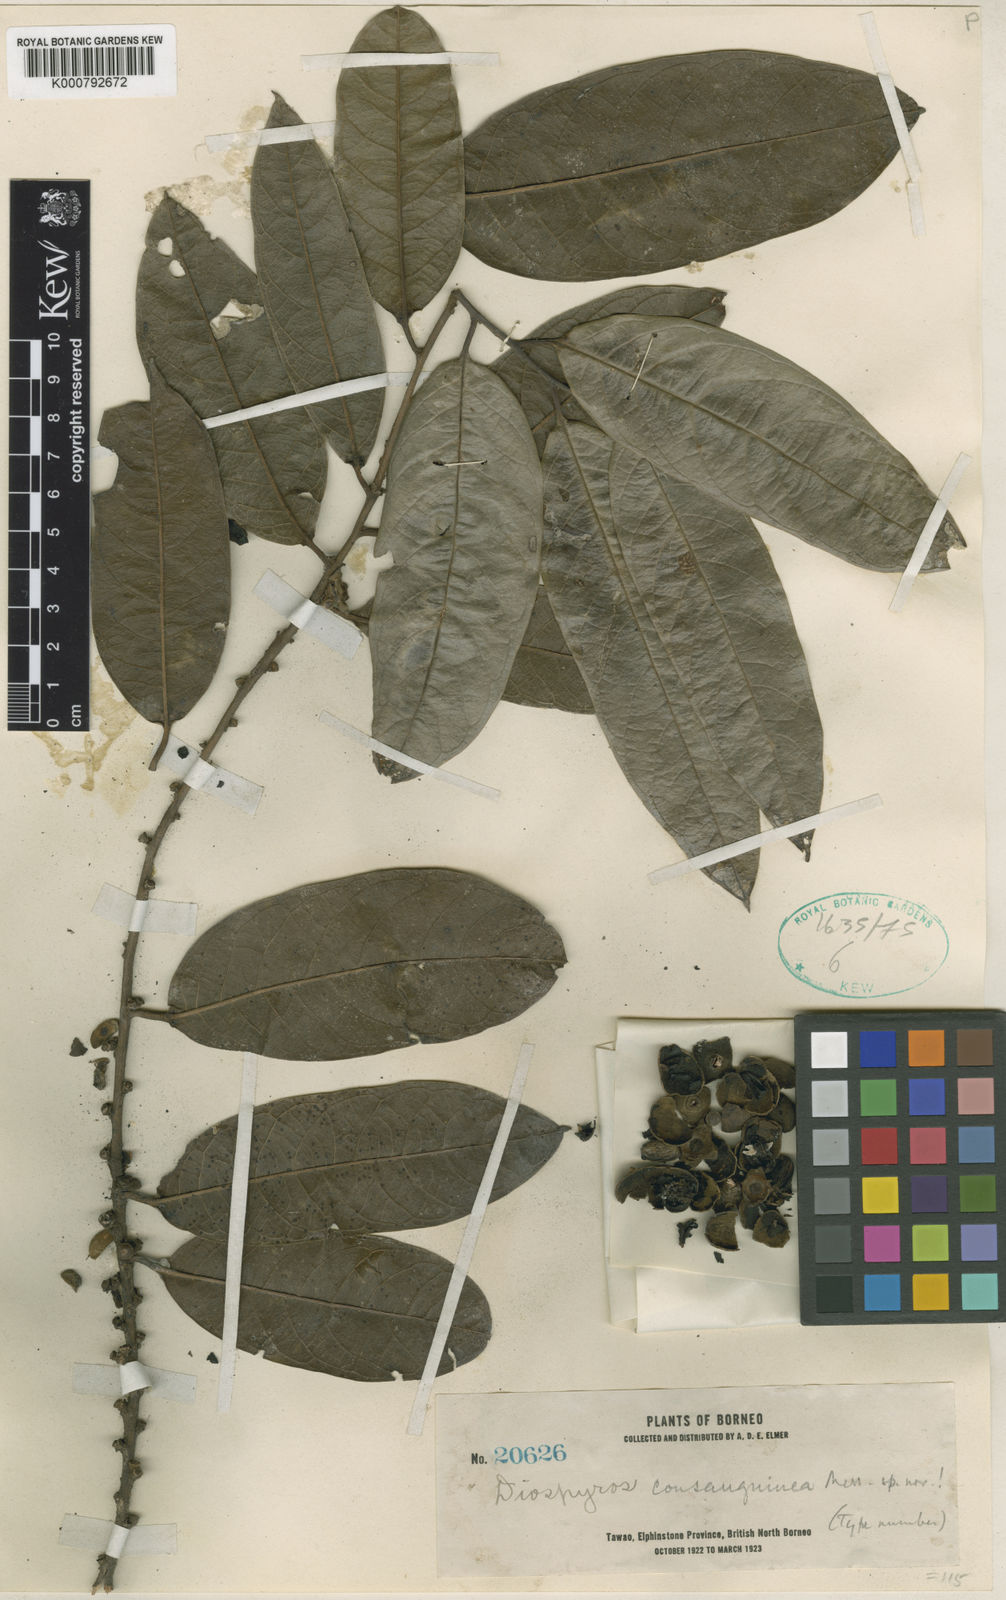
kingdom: Plantae
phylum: Tracheophyta
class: Magnoliopsida
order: Ericales
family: Ebenaceae
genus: Diospyros
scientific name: Diospyros lanceifolia
